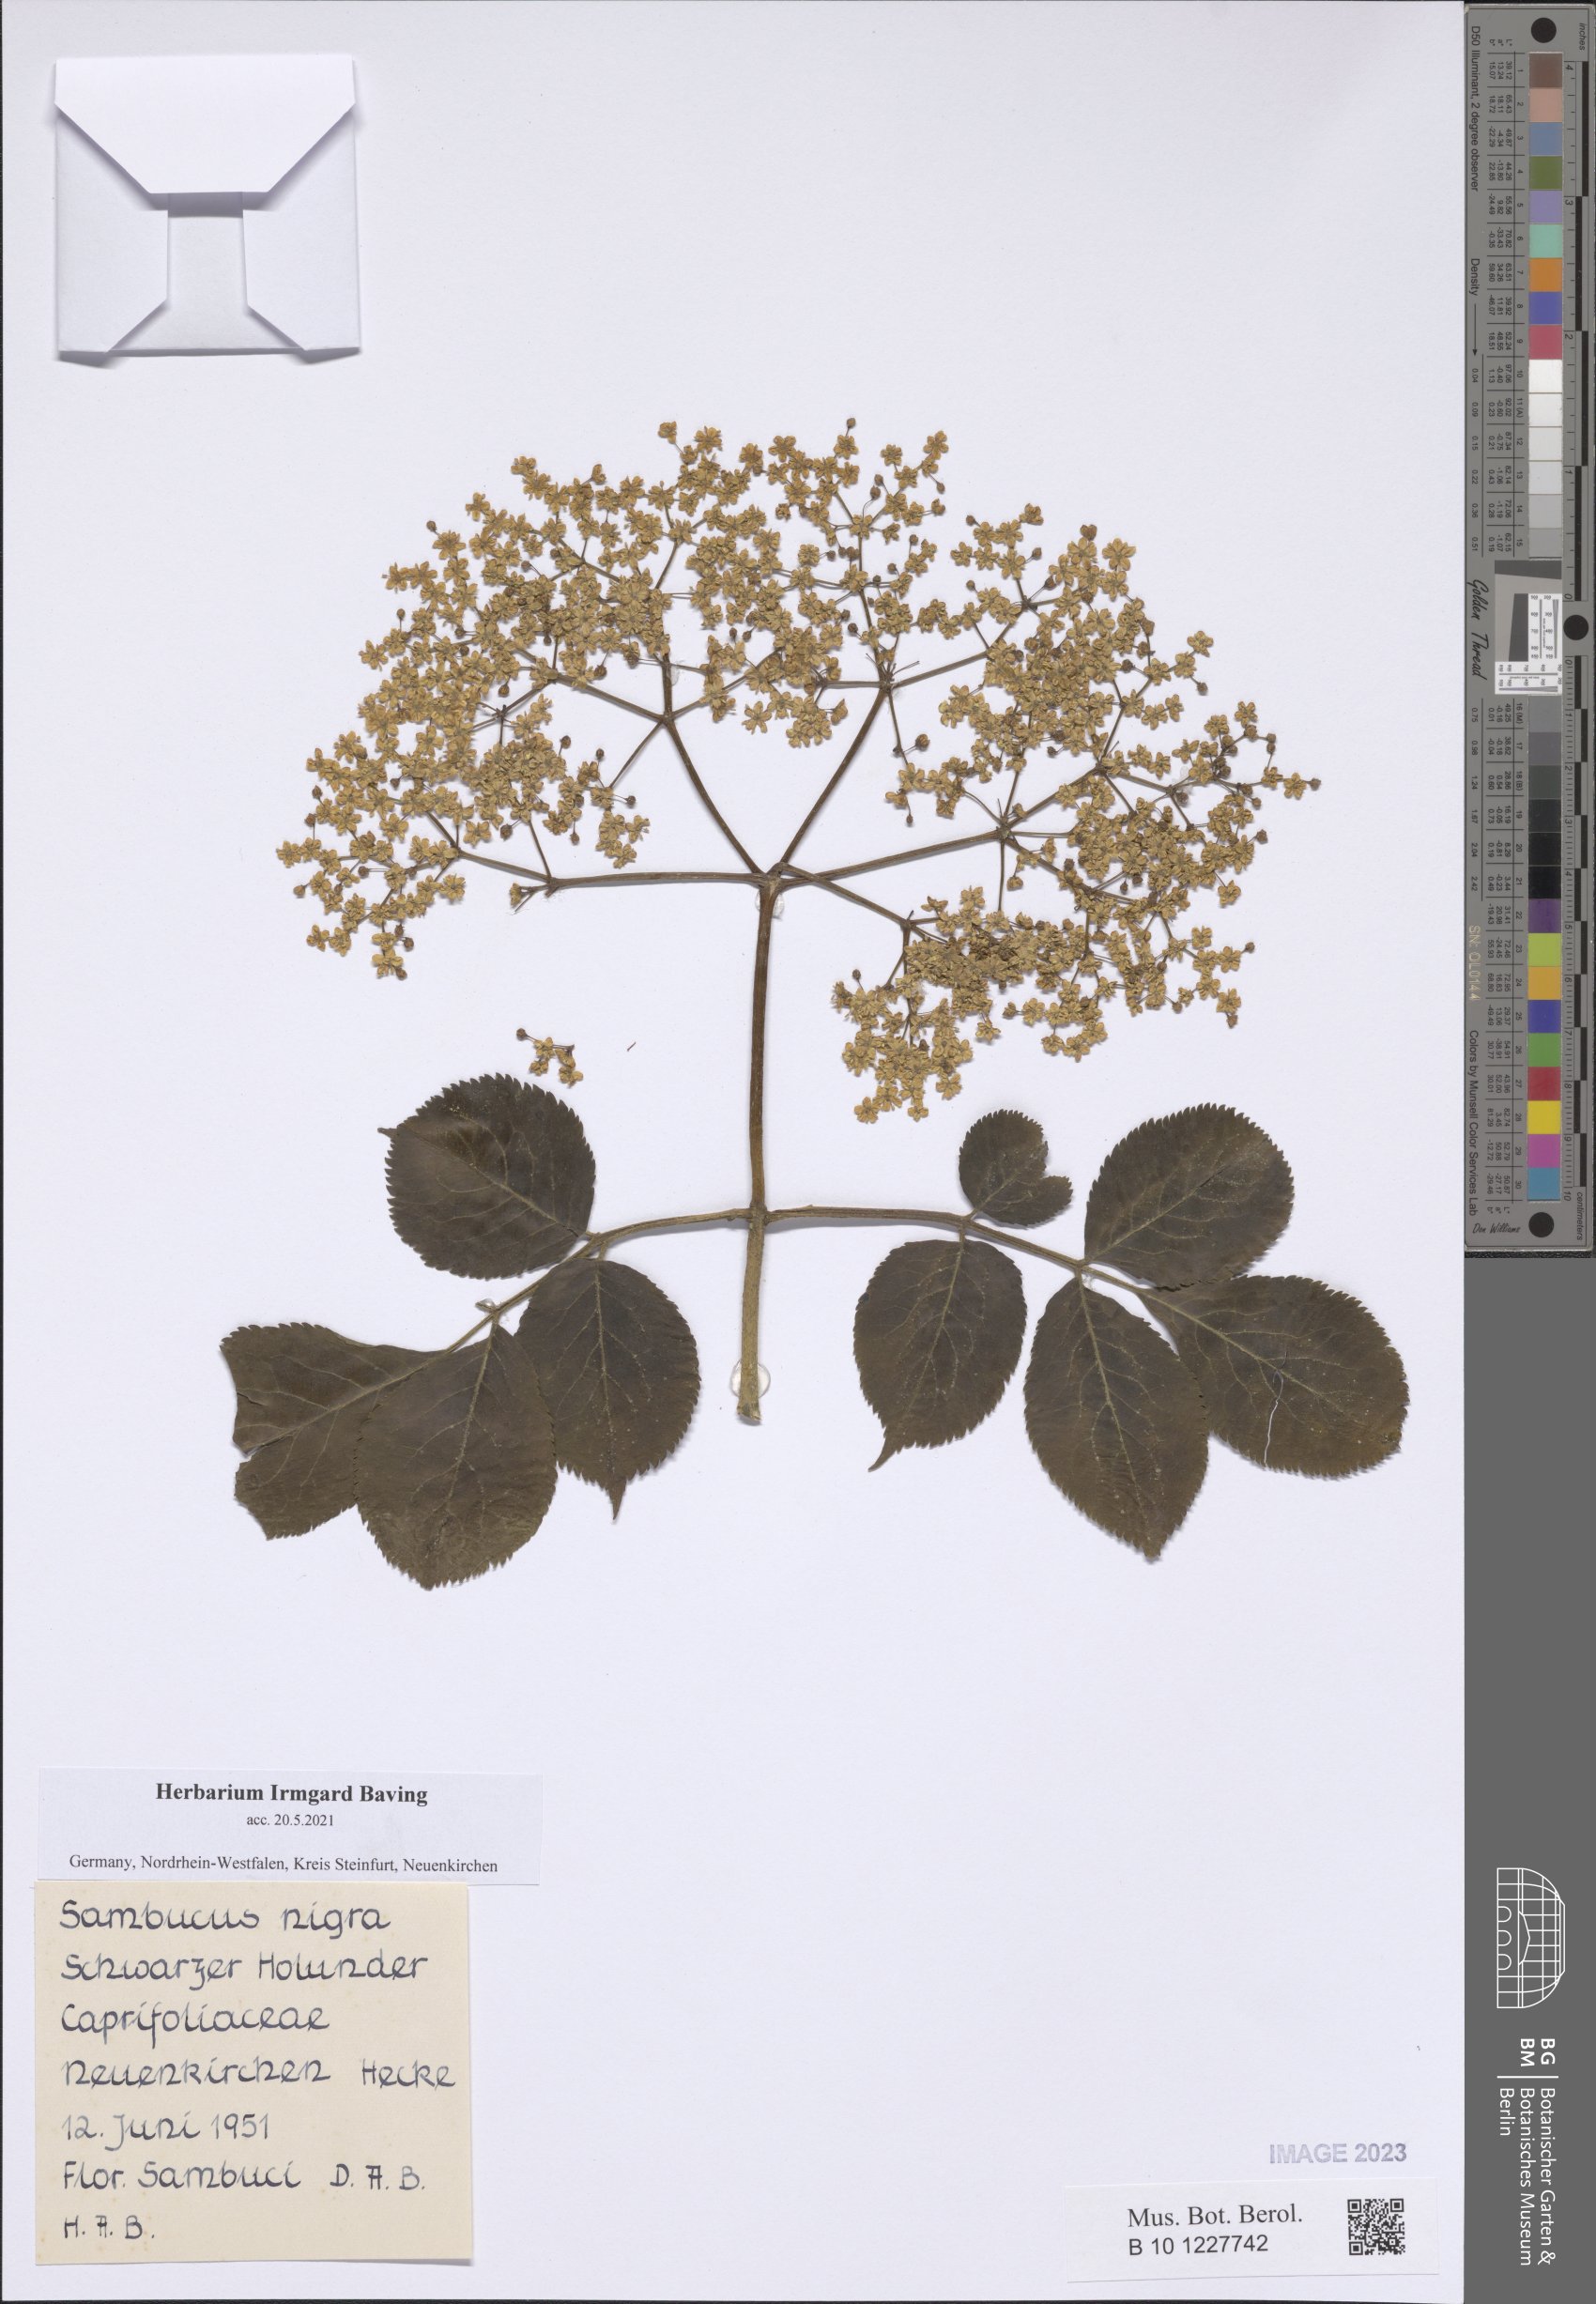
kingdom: Plantae
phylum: Tracheophyta
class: Magnoliopsida
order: Dipsacales
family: Viburnaceae
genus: Sambucus
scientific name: Sambucus nigra
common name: Elder
